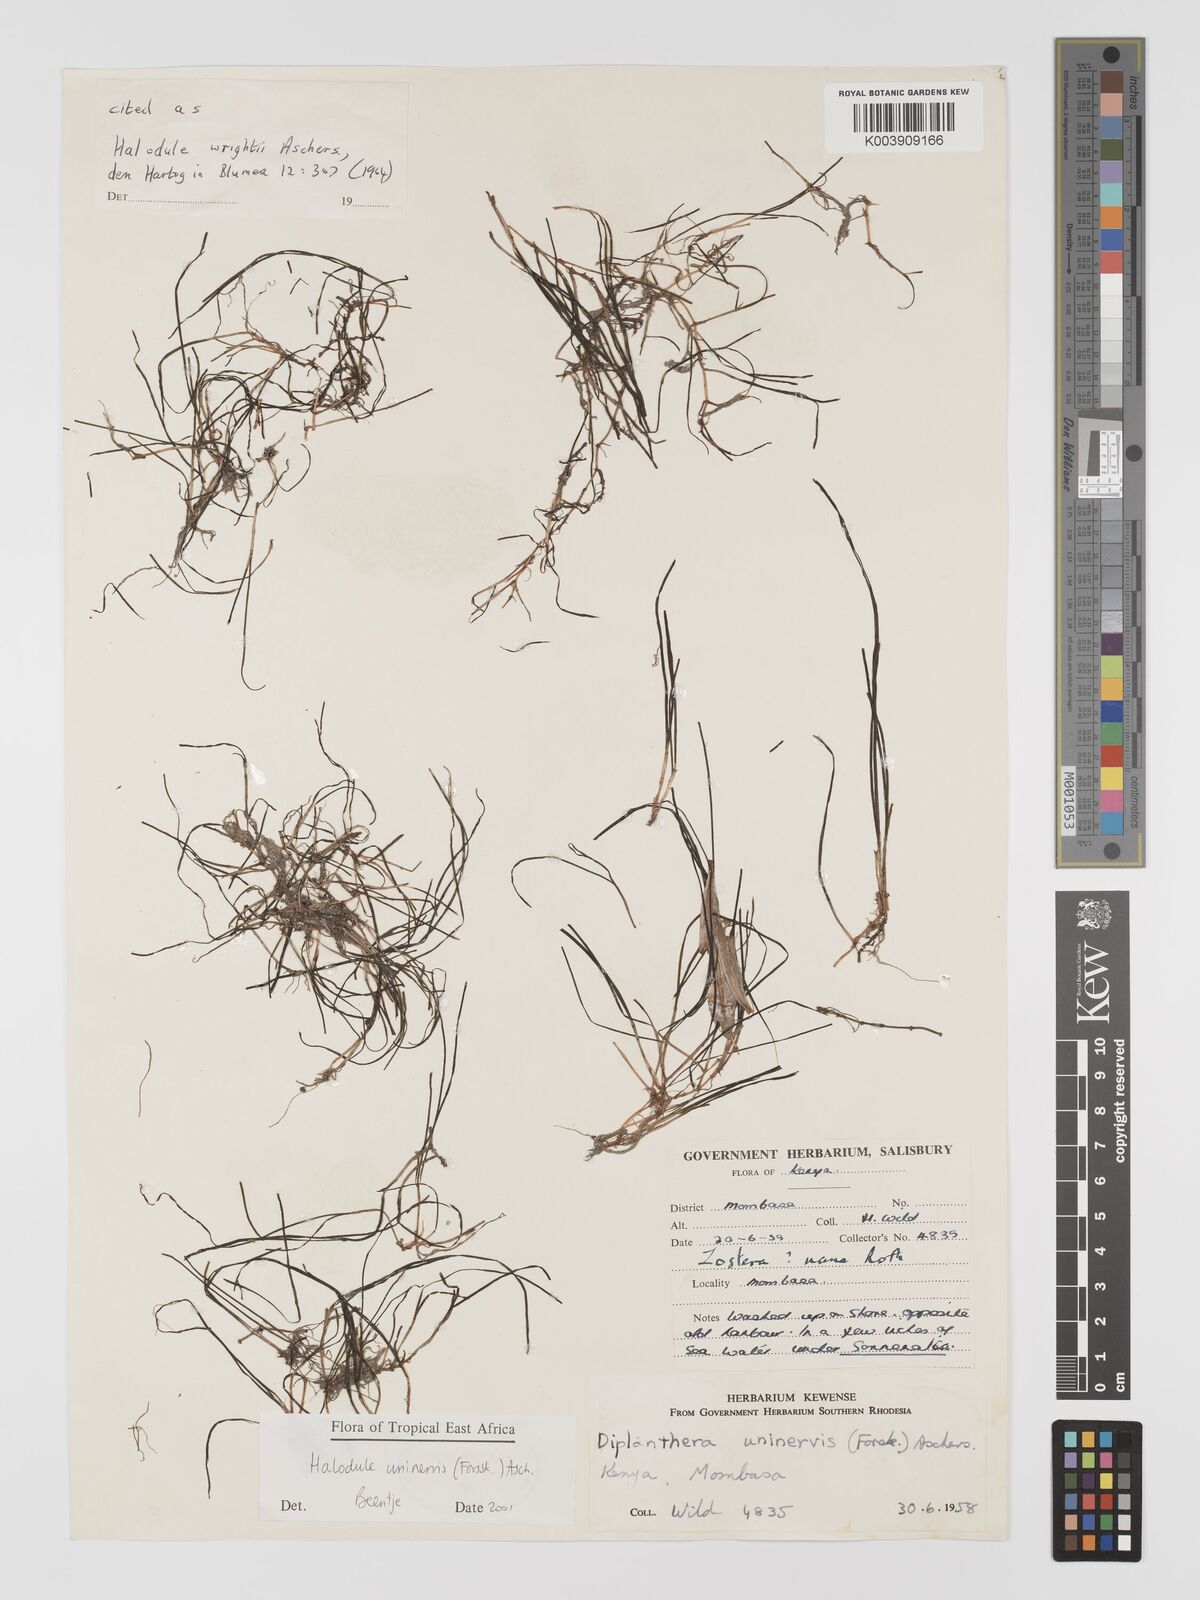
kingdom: Plantae
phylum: Tracheophyta
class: Liliopsida
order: Alismatales
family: Cymodoceaceae
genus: Halodule
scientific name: Halodule uninervis
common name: Narrowleaf seagrass
